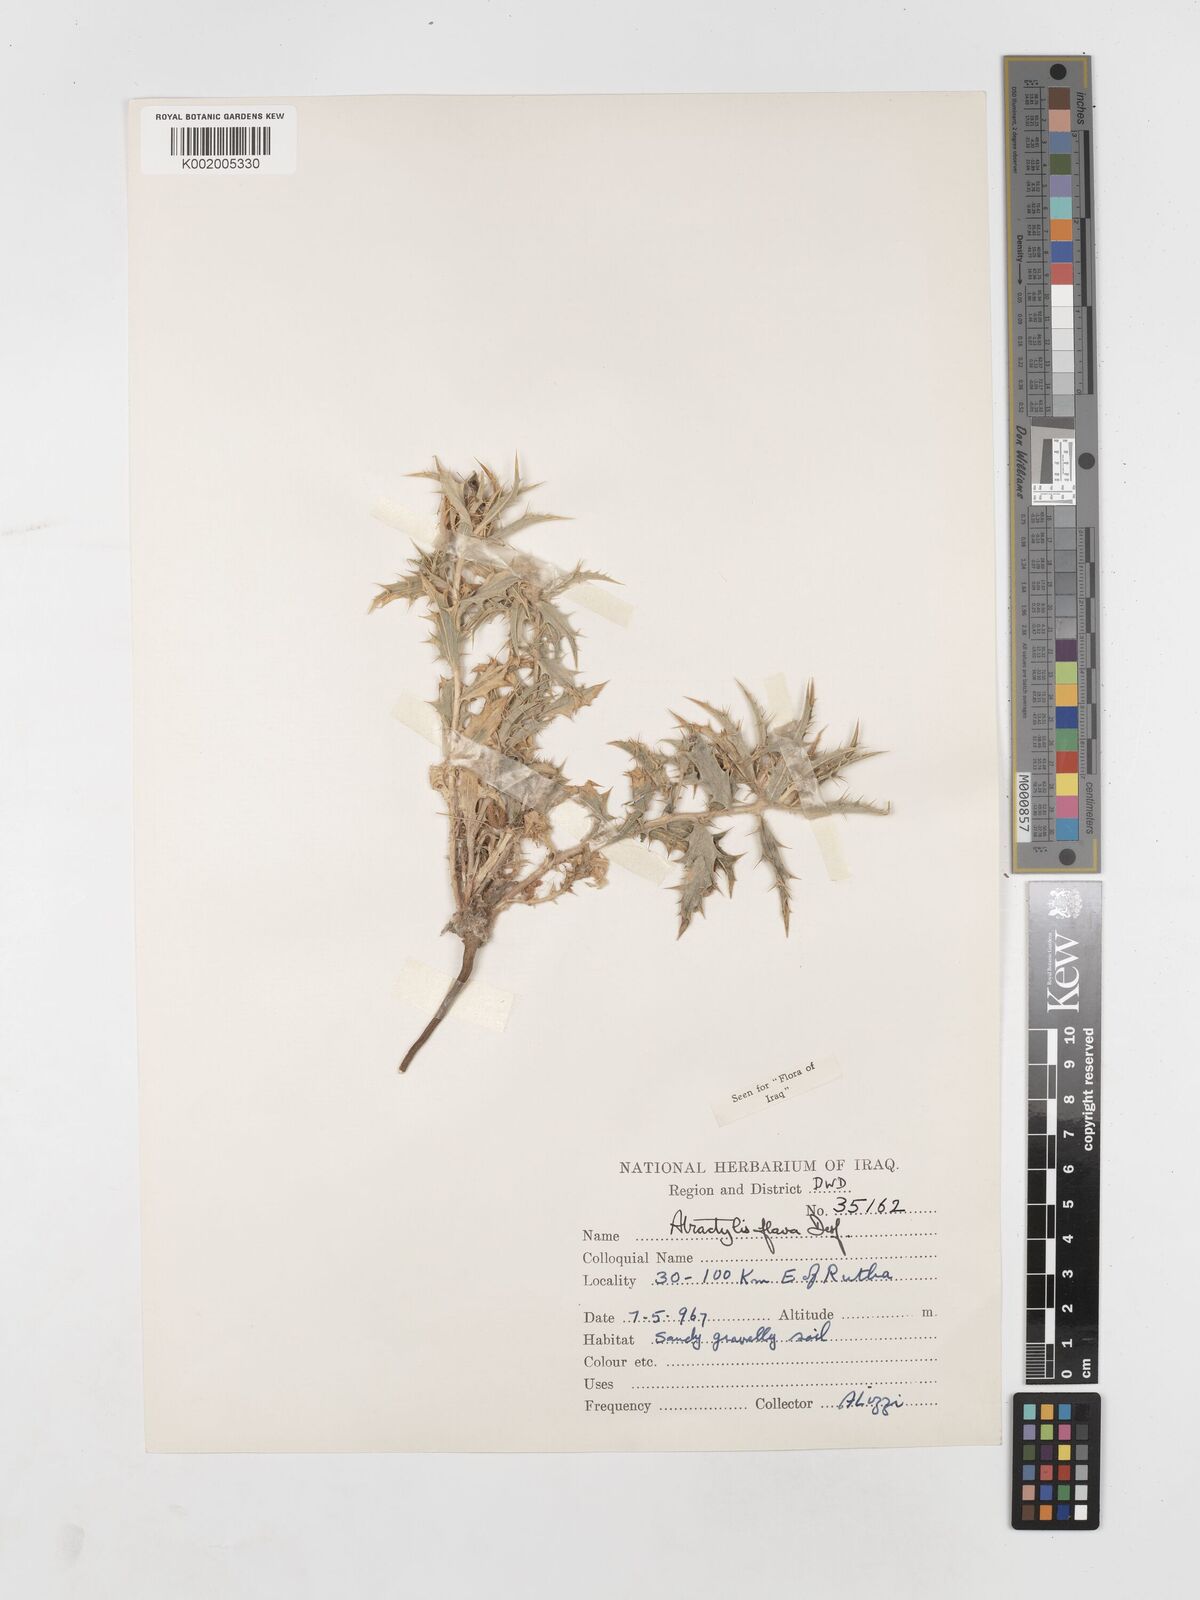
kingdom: Plantae
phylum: Tracheophyta
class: Magnoliopsida
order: Asterales
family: Asteraceae
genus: Atractylis
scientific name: Atractylis carduus
